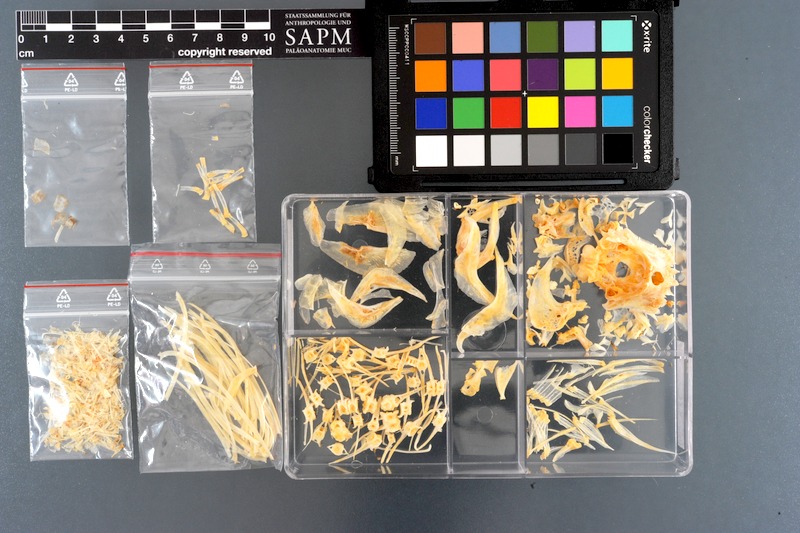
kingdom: Animalia
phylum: Chordata
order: Characiformes
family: Serrasalmidae
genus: Myloplus
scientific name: Myloplus rubripinnis
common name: Redhook metynnis
